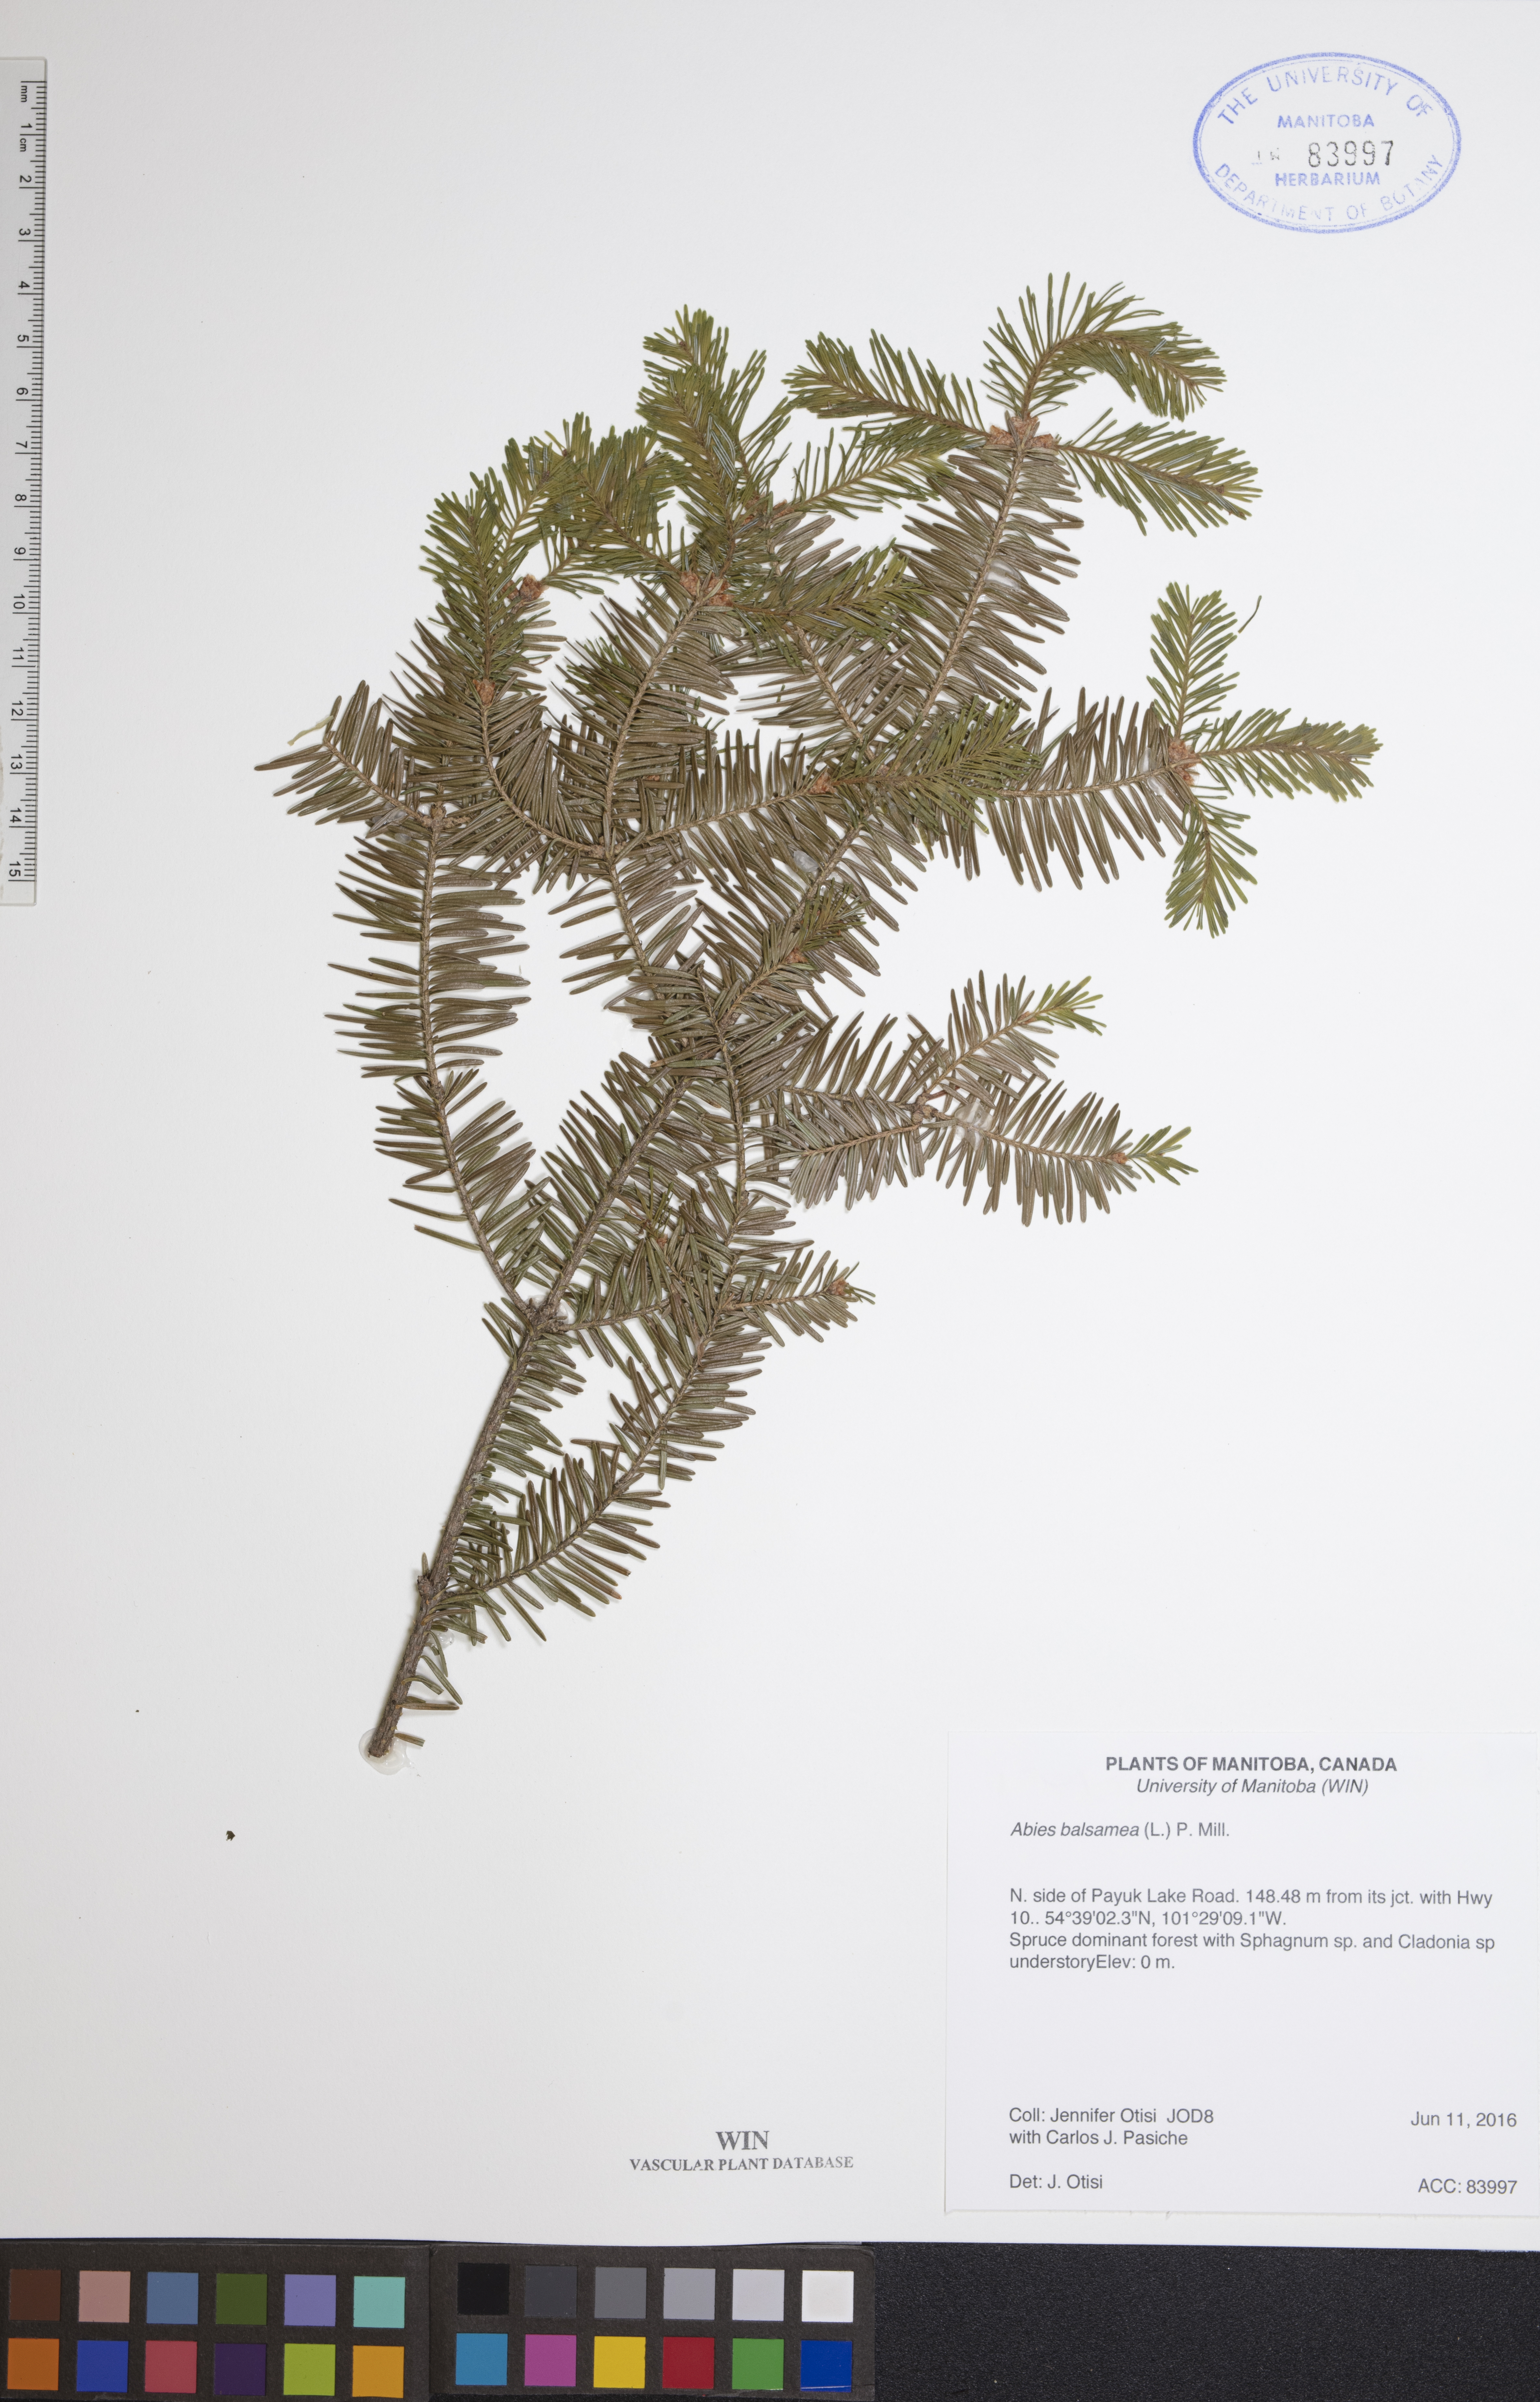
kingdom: Plantae
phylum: Tracheophyta
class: Pinopsida
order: Pinales
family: Pinaceae
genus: Abies
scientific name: Abies balsamea
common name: Balsam fir
